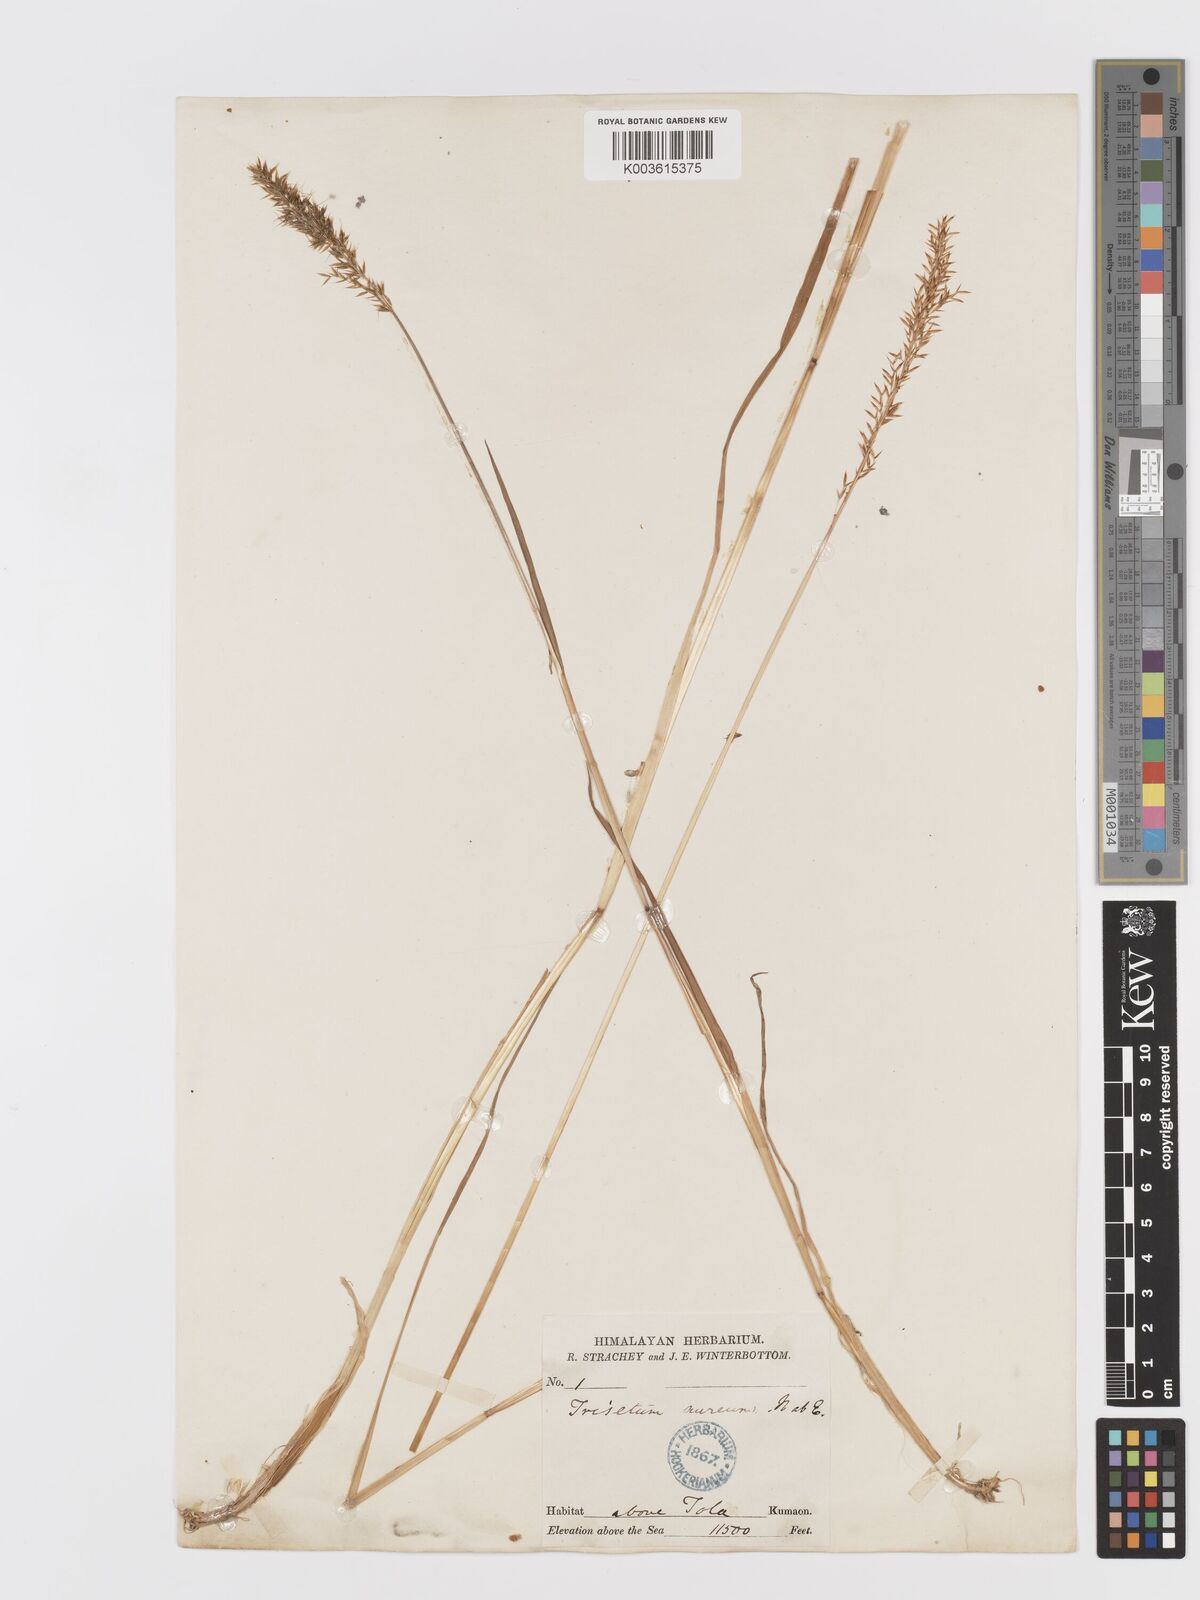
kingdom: Plantae
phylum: Tracheophyta
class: Liliopsida
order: Poales
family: Poaceae
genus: Sibirotrisetum
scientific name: Sibirotrisetum aeneum
